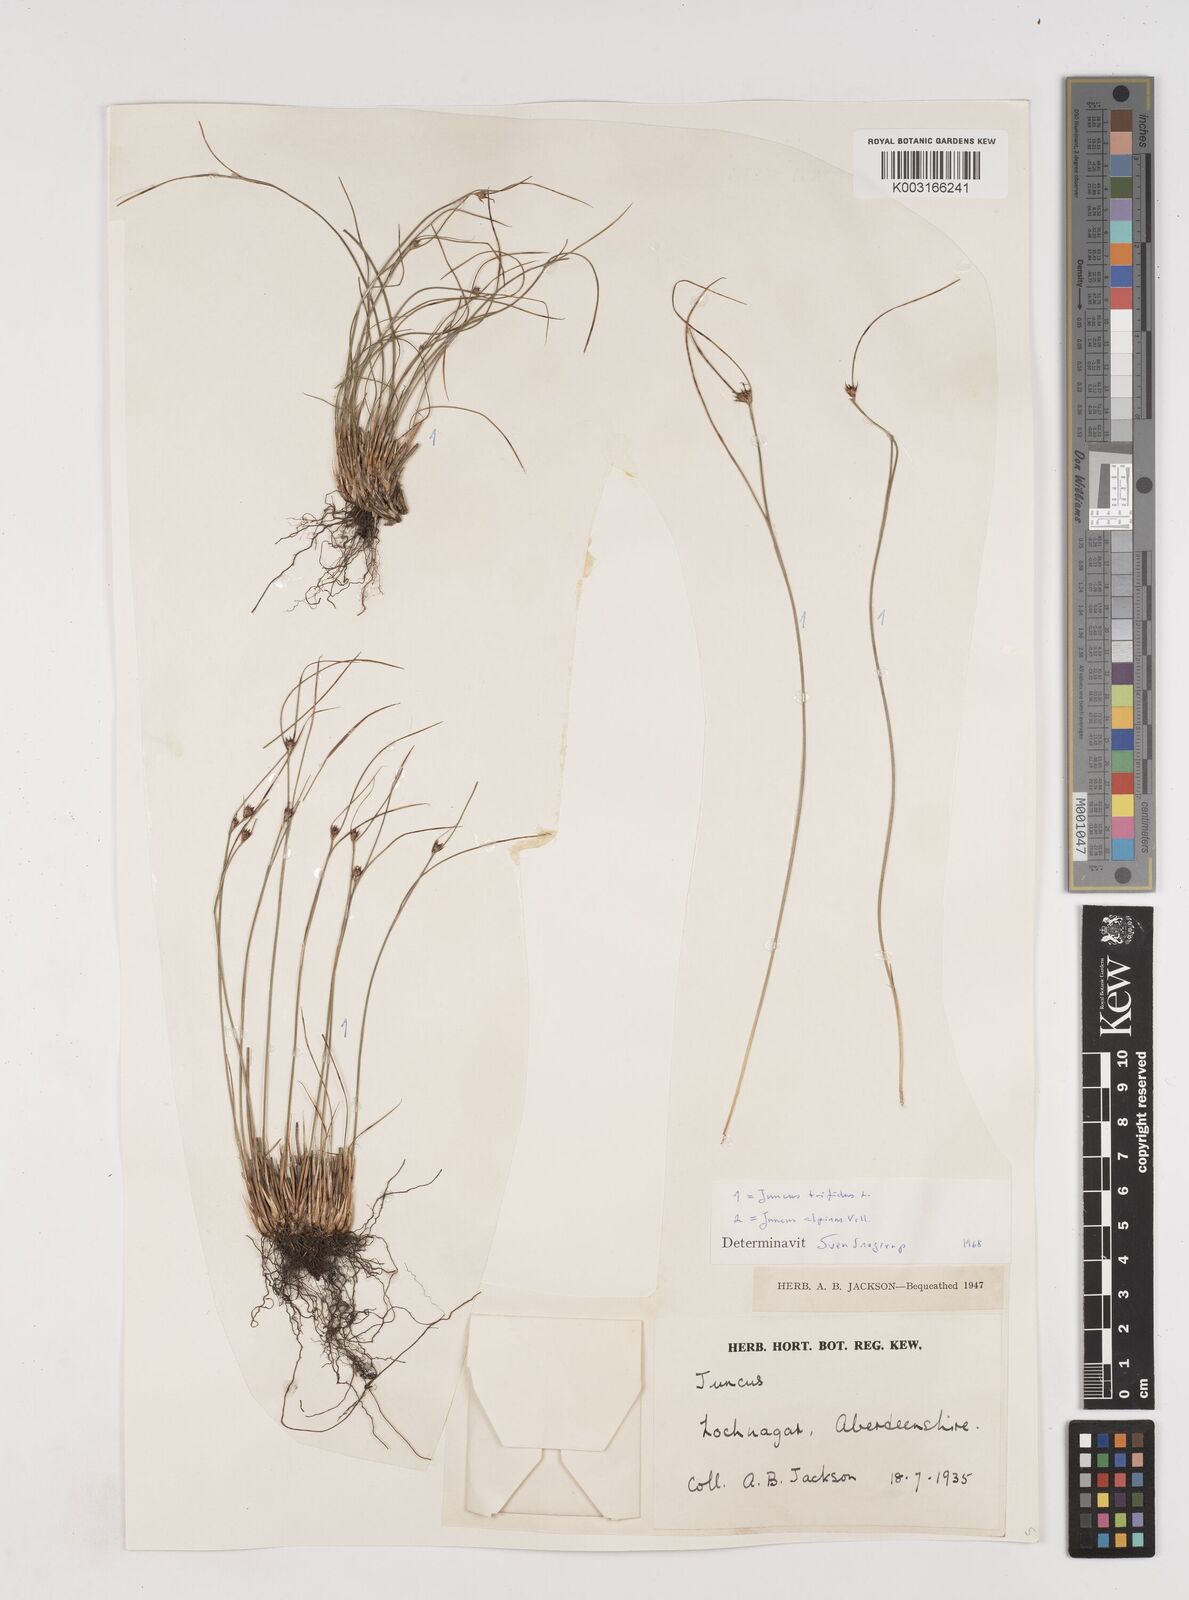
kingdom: Plantae
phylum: Tracheophyta
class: Liliopsida
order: Poales
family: Juncaceae
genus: Oreojuncus
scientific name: Oreojuncus trifidus
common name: Highland rush
